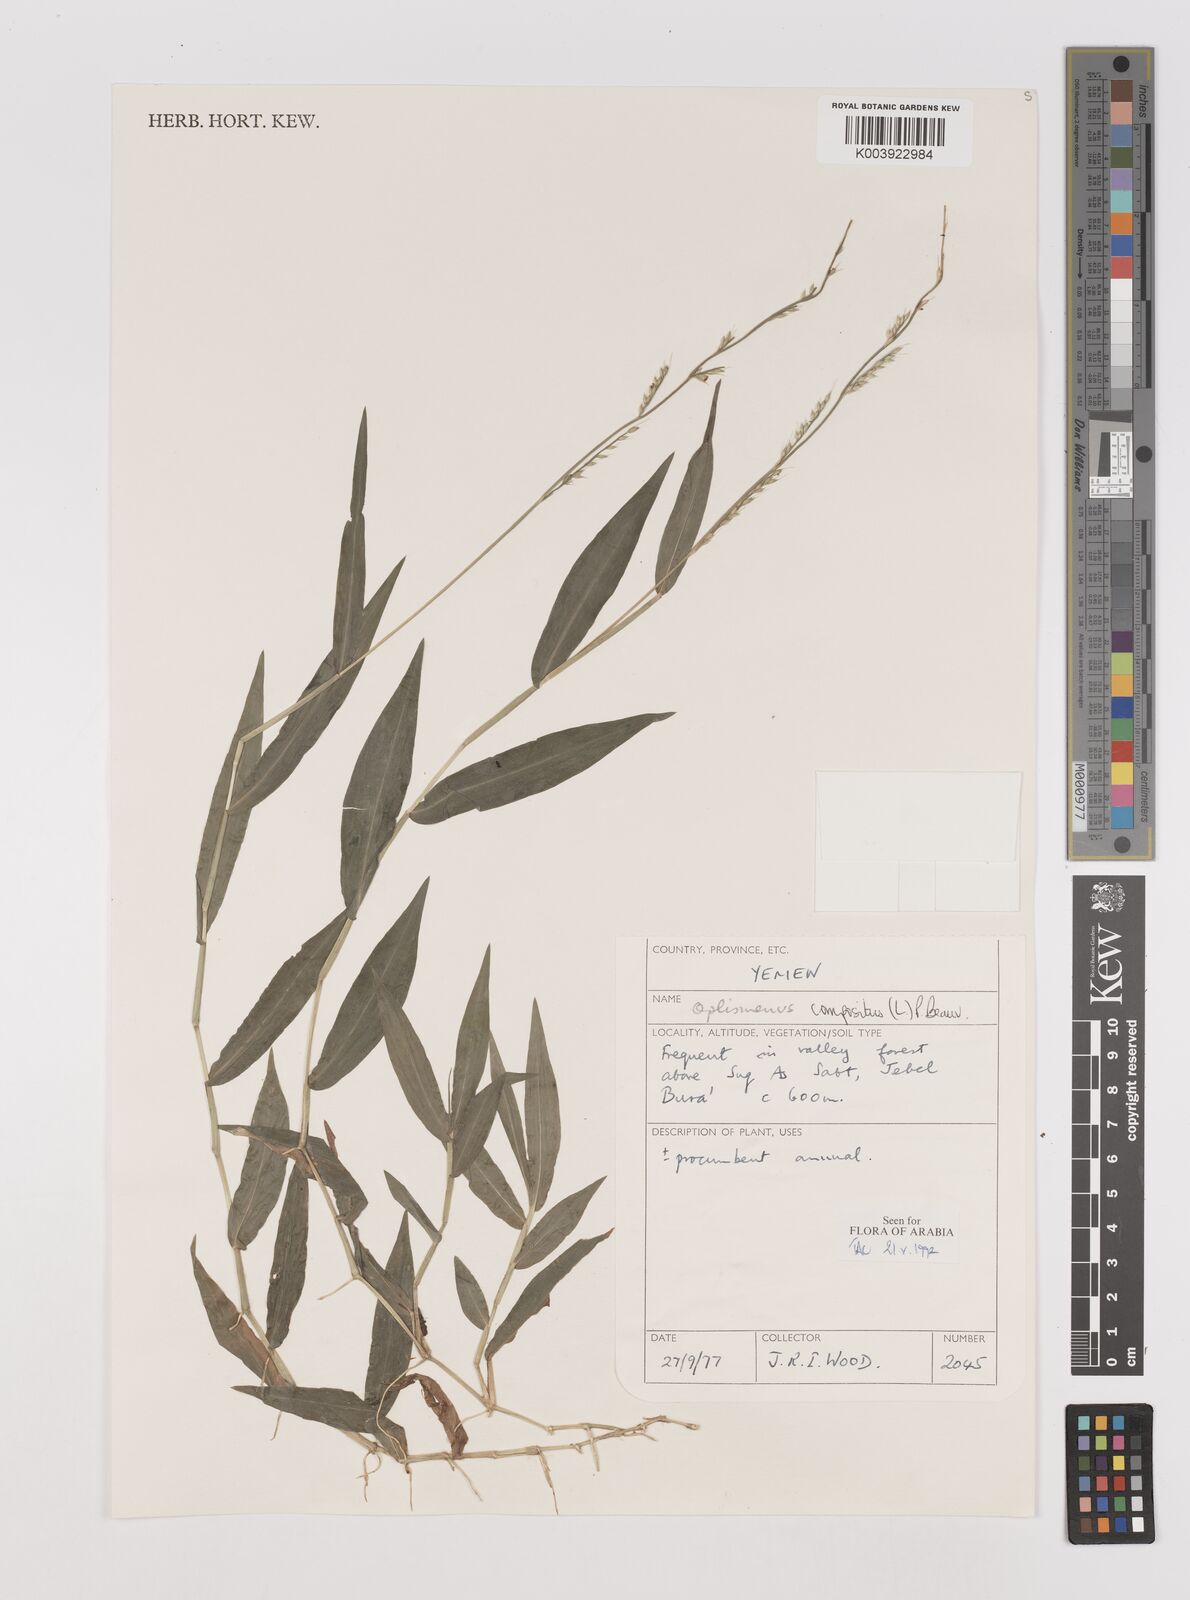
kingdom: Plantae
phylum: Tracheophyta
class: Liliopsida
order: Poales
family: Poaceae
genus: Oplismenus
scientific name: Oplismenus compositus
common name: Running mountain grass
